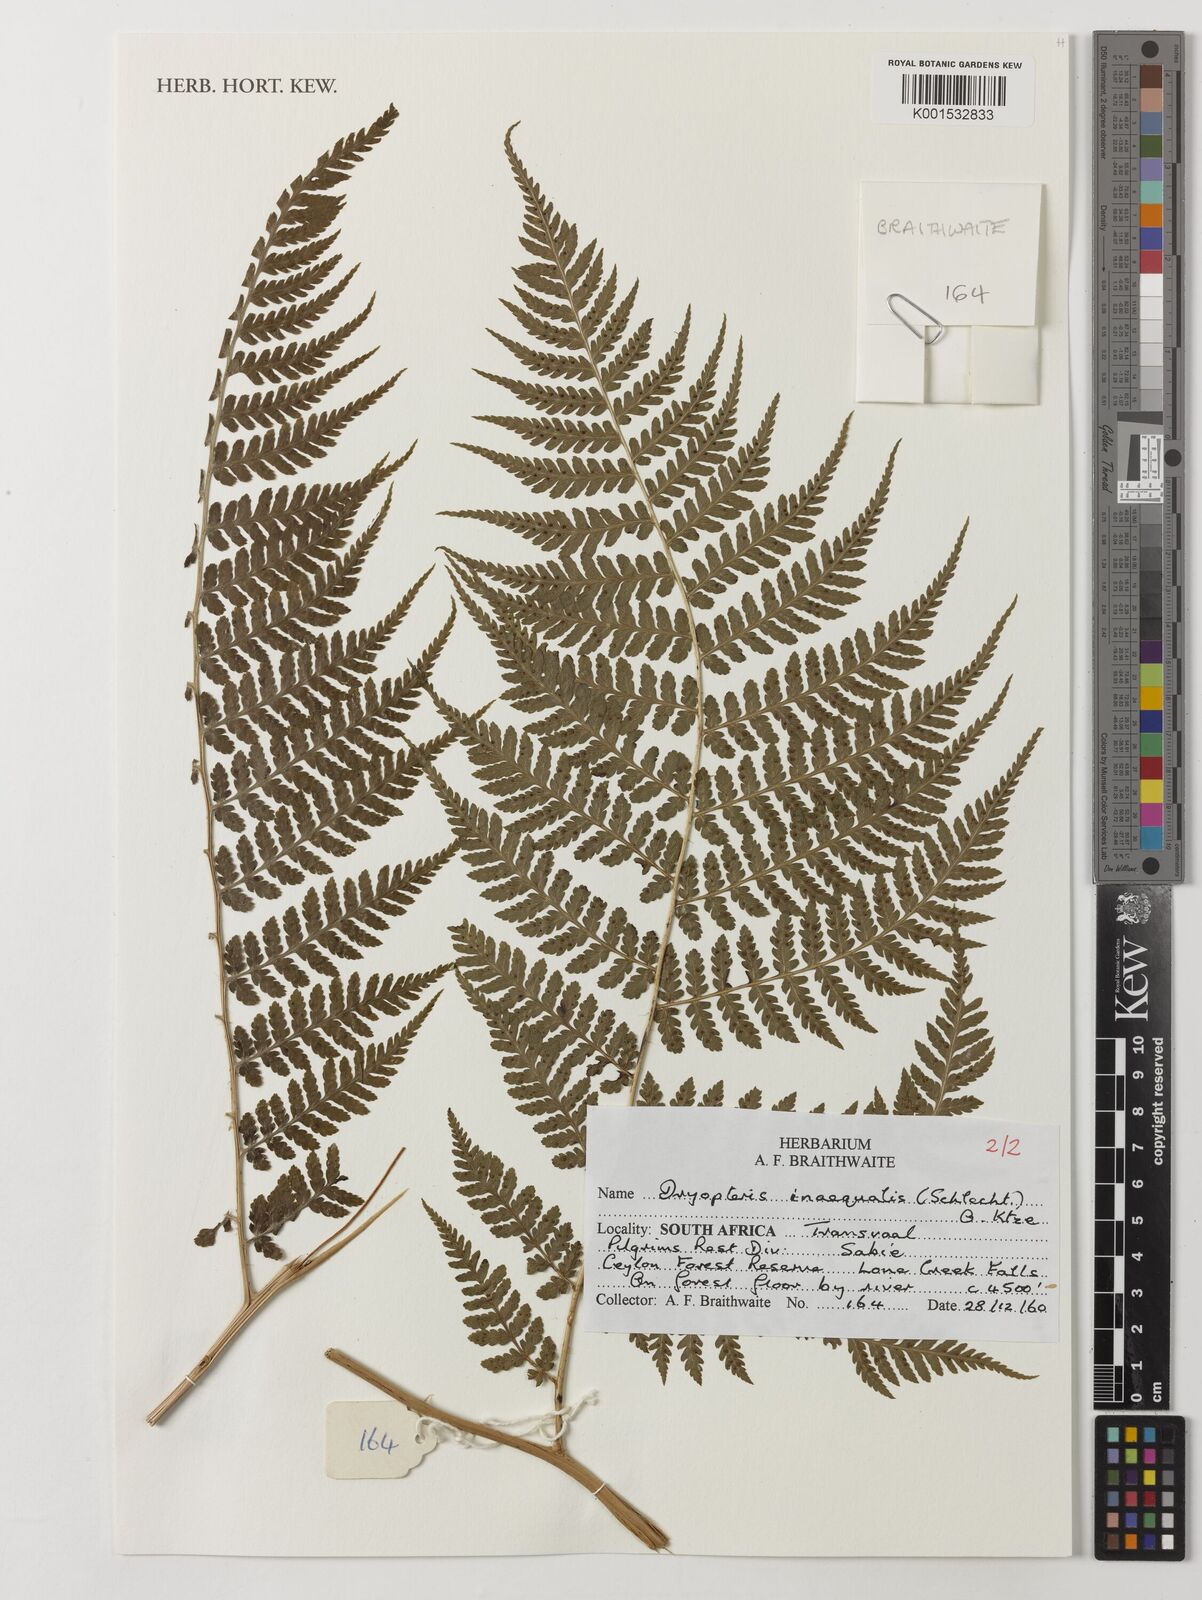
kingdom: Plantae
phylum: Tracheophyta
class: Polypodiopsida
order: Polypodiales
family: Dryopteridaceae
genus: Dryopteris
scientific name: Dryopteris inaequalis
